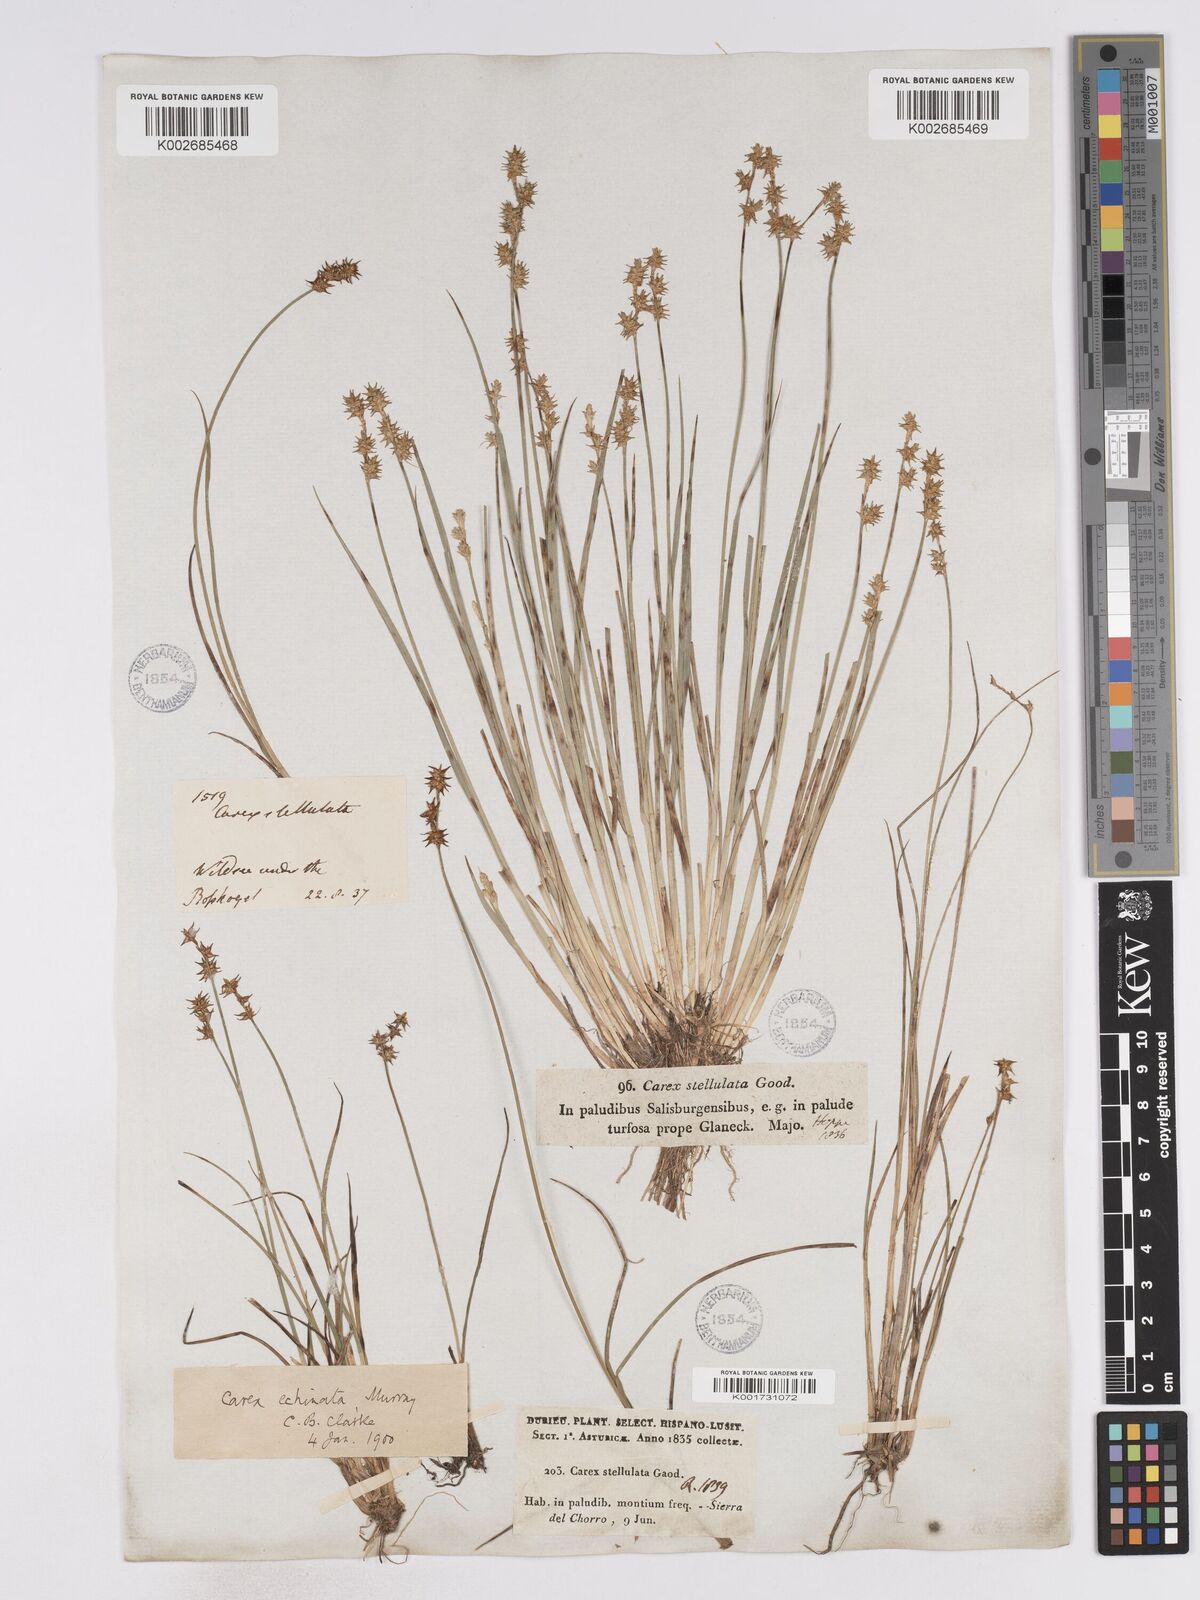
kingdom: Plantae
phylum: Tracheophyta
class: Liliopsida
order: Poales
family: Cyperaceae
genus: Carex
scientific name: Carex echinata
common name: Star sedge
